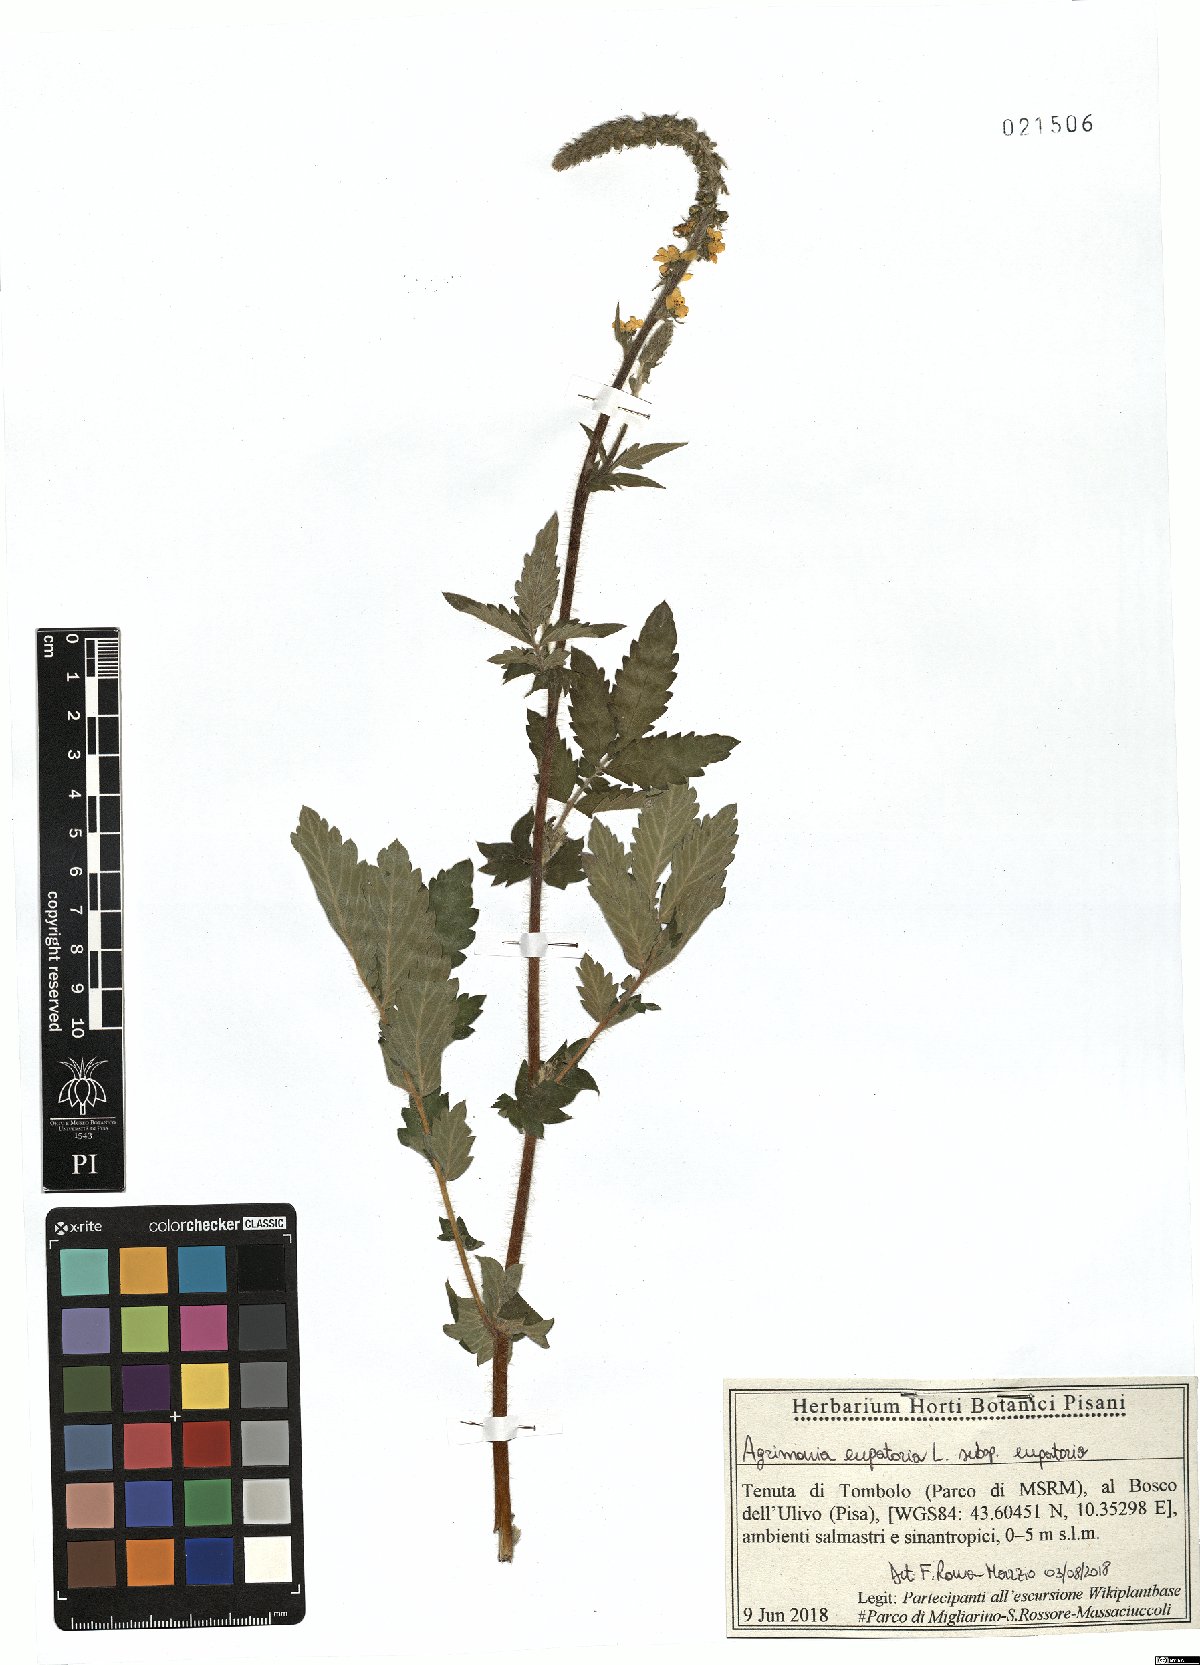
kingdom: Plantae
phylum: Tracheophyta
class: Magnoliopsida
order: Rosales
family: Rosaceae
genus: Agrimonia
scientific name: Agrimonia eupatoria
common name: Agrimony
